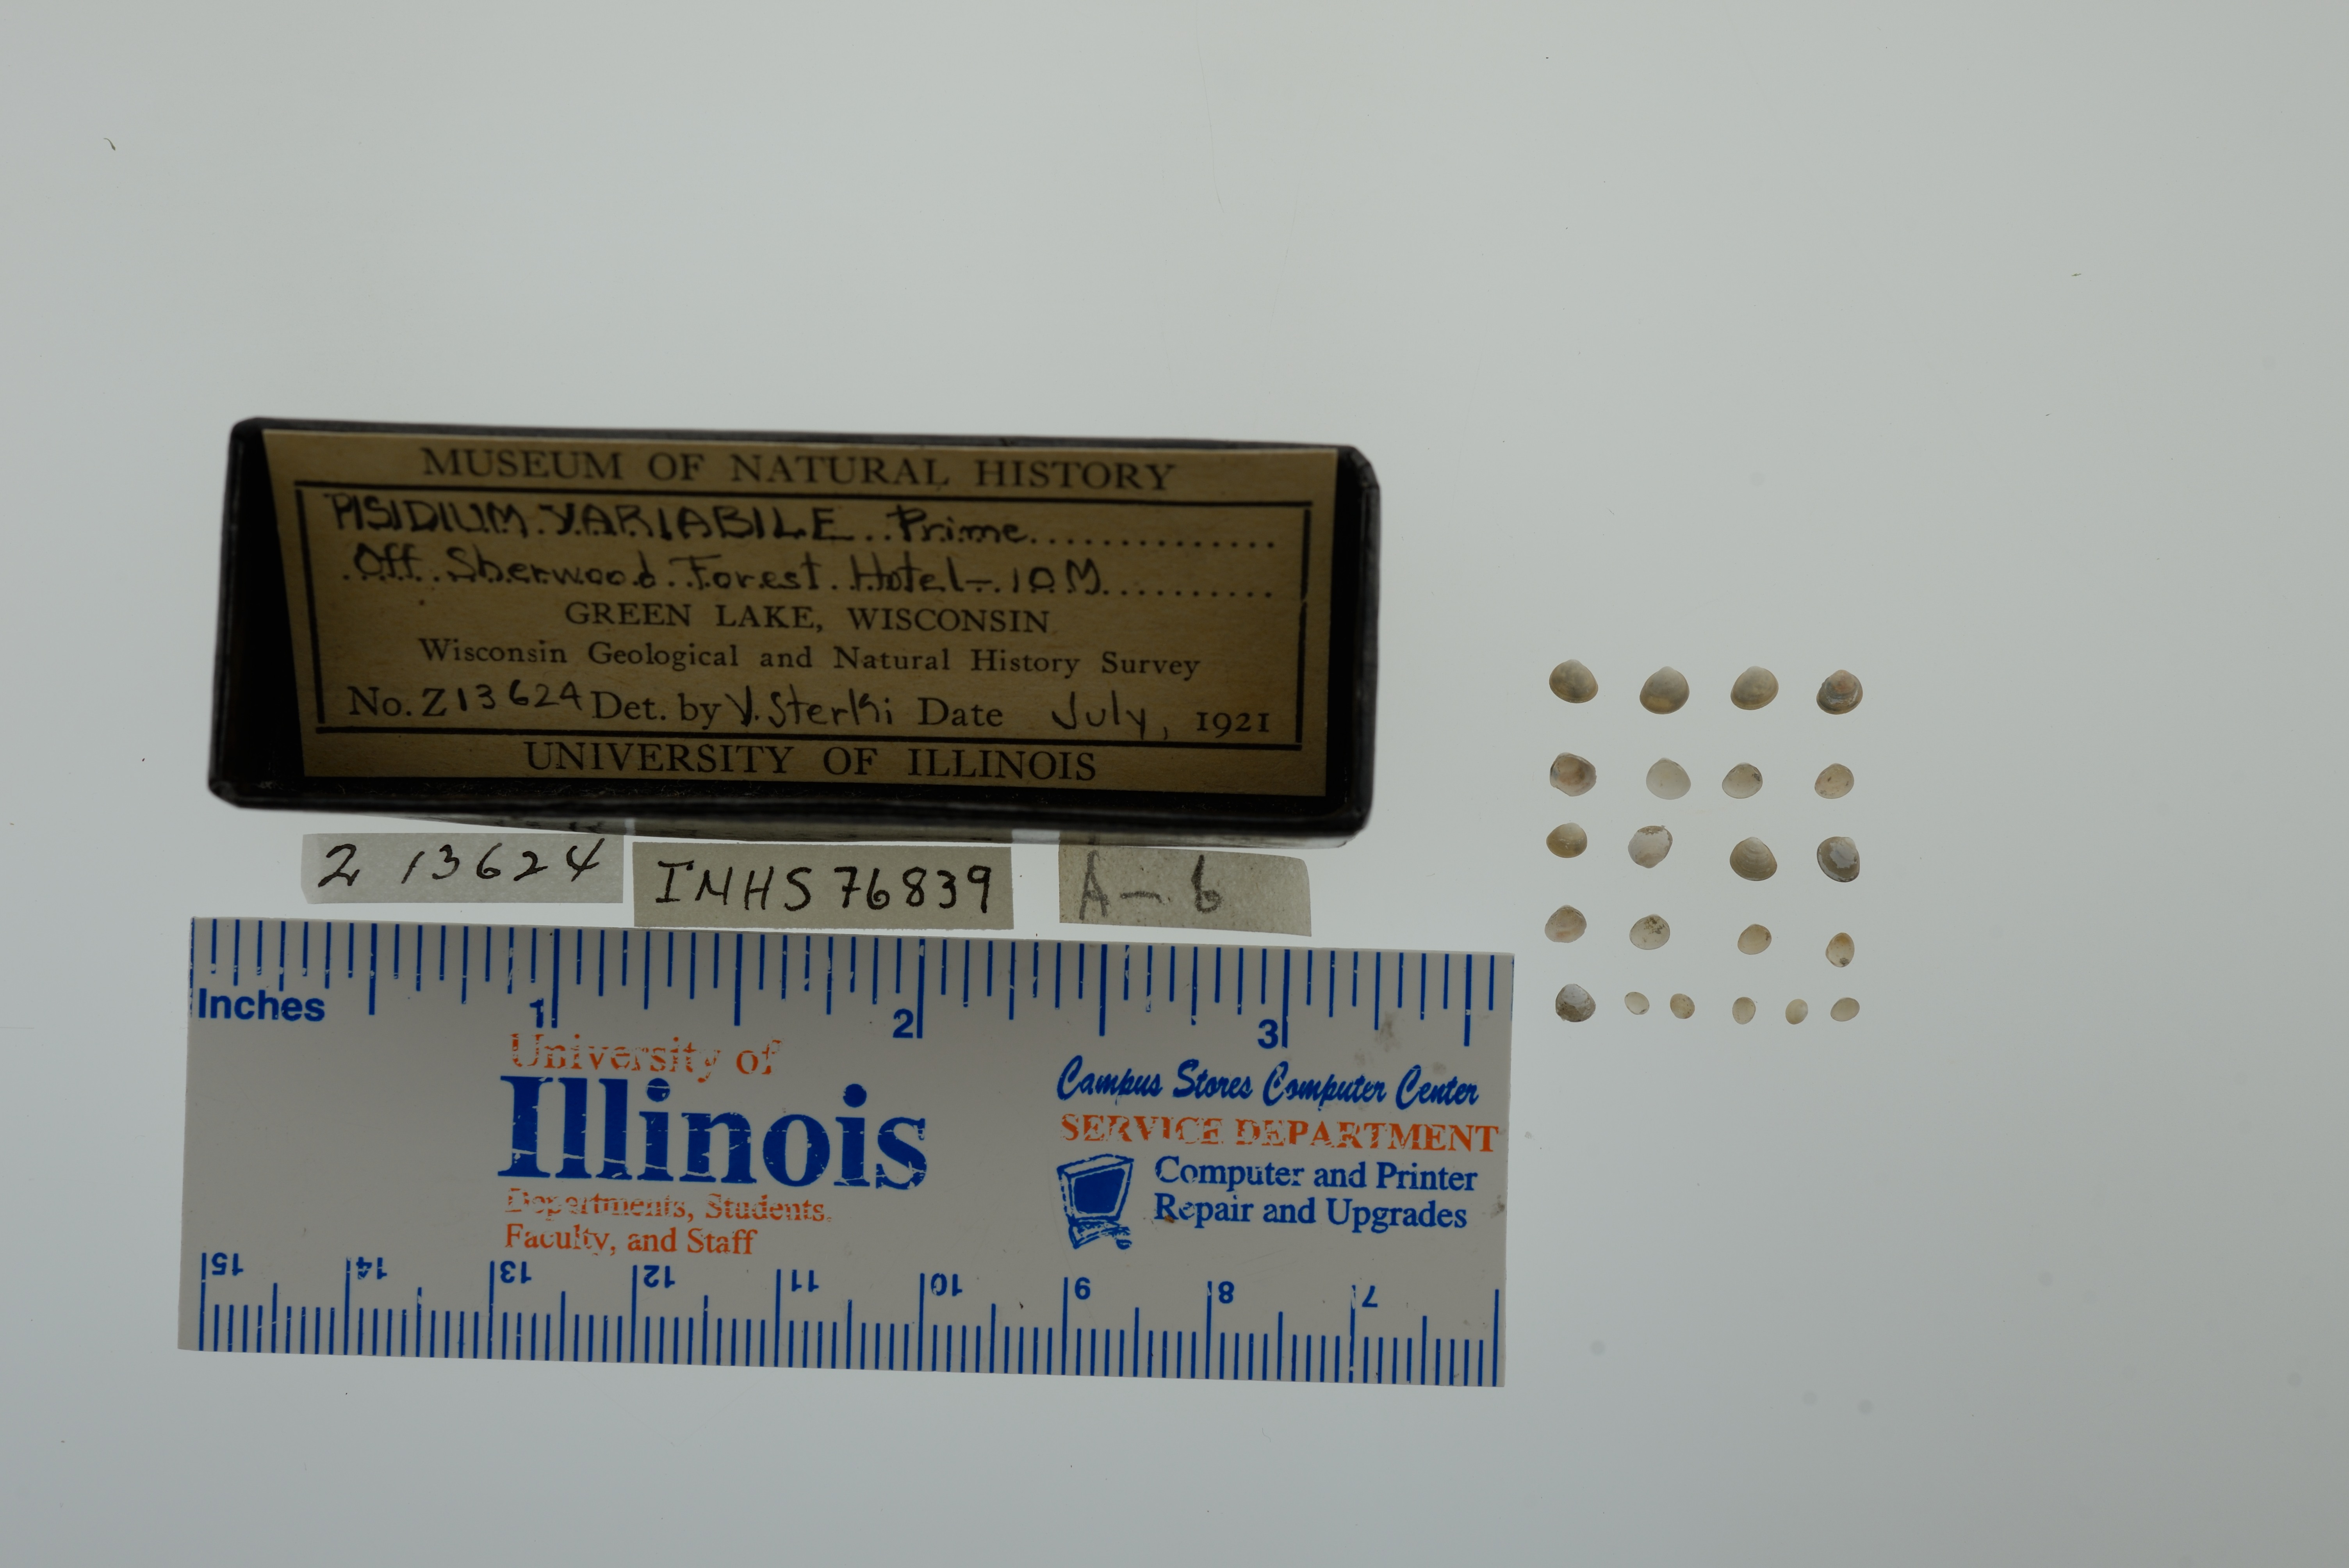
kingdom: Animalia
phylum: Mollusca
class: Bivalvia
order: Sphaeriida
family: Sphaeriidae
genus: Euglesa
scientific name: Euglesa variabilis
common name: Triangular peaclam
